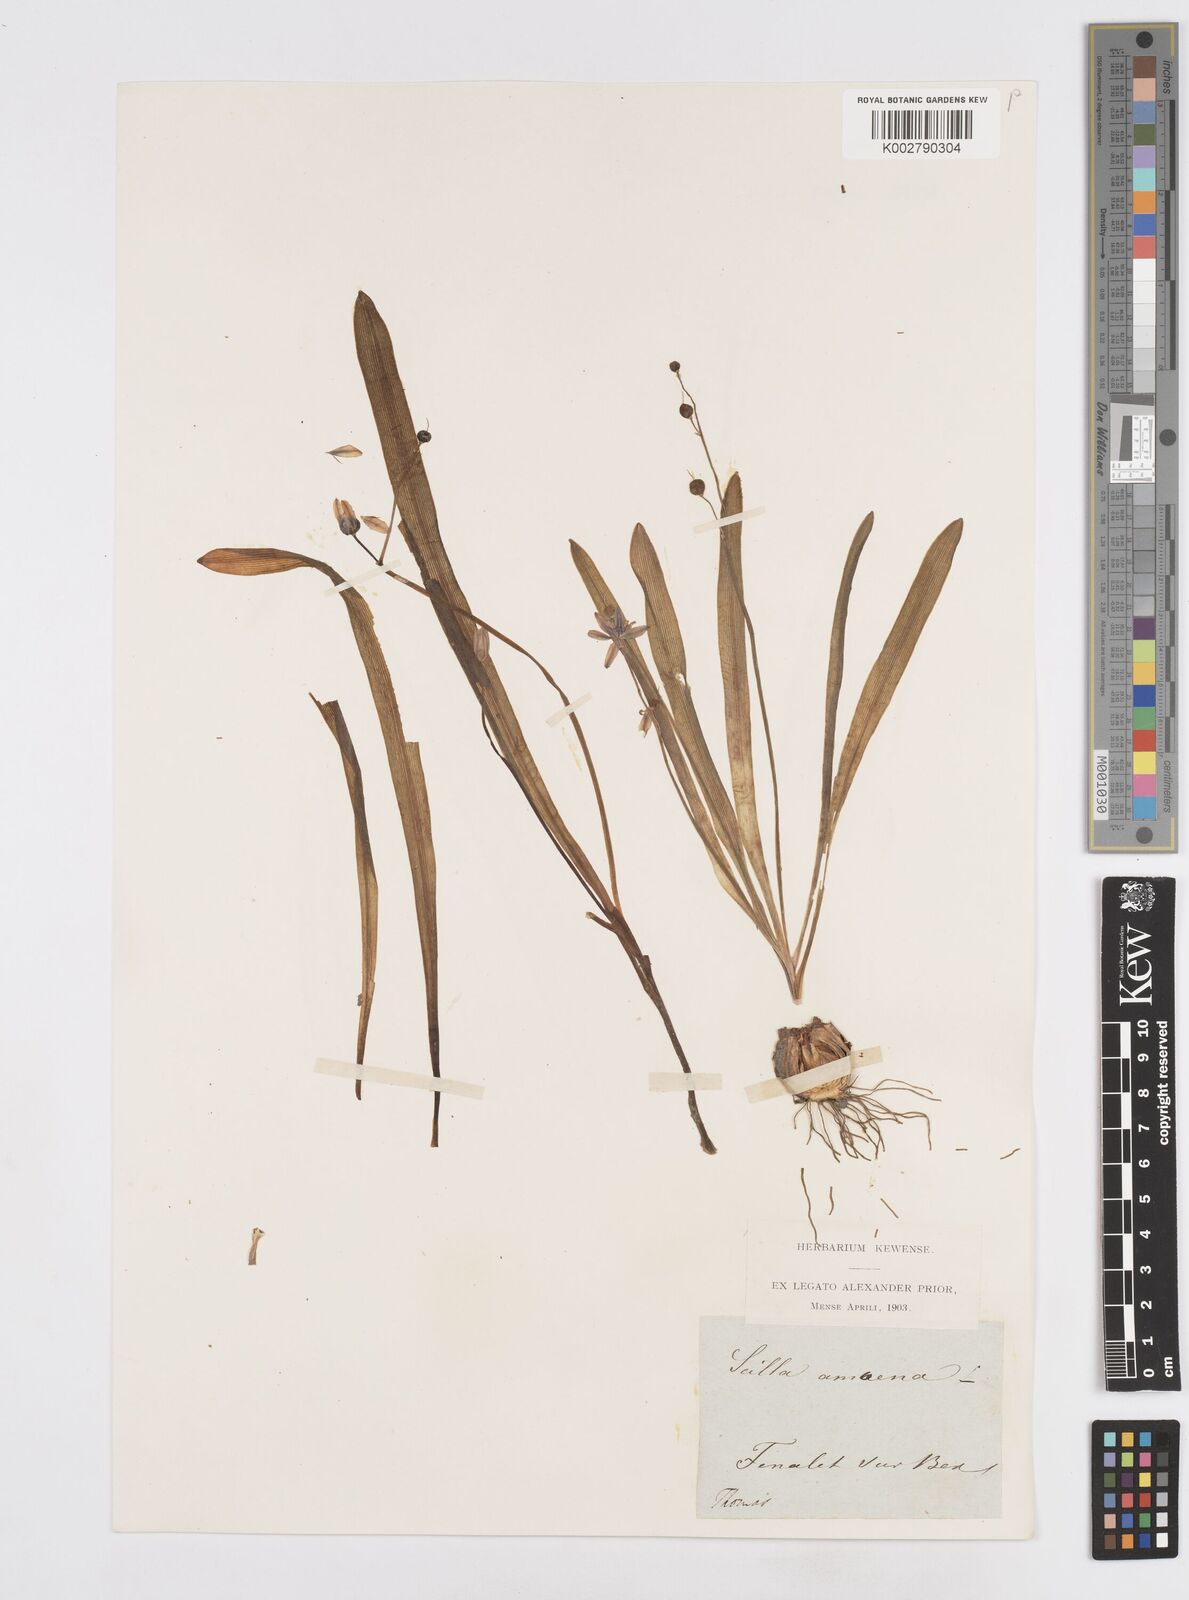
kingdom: Plantae
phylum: Tracheophyta
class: Liliopsida
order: Asparagales
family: Asparagaceae
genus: Scilla
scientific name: Scilla amoena
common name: Star-hyacinth
